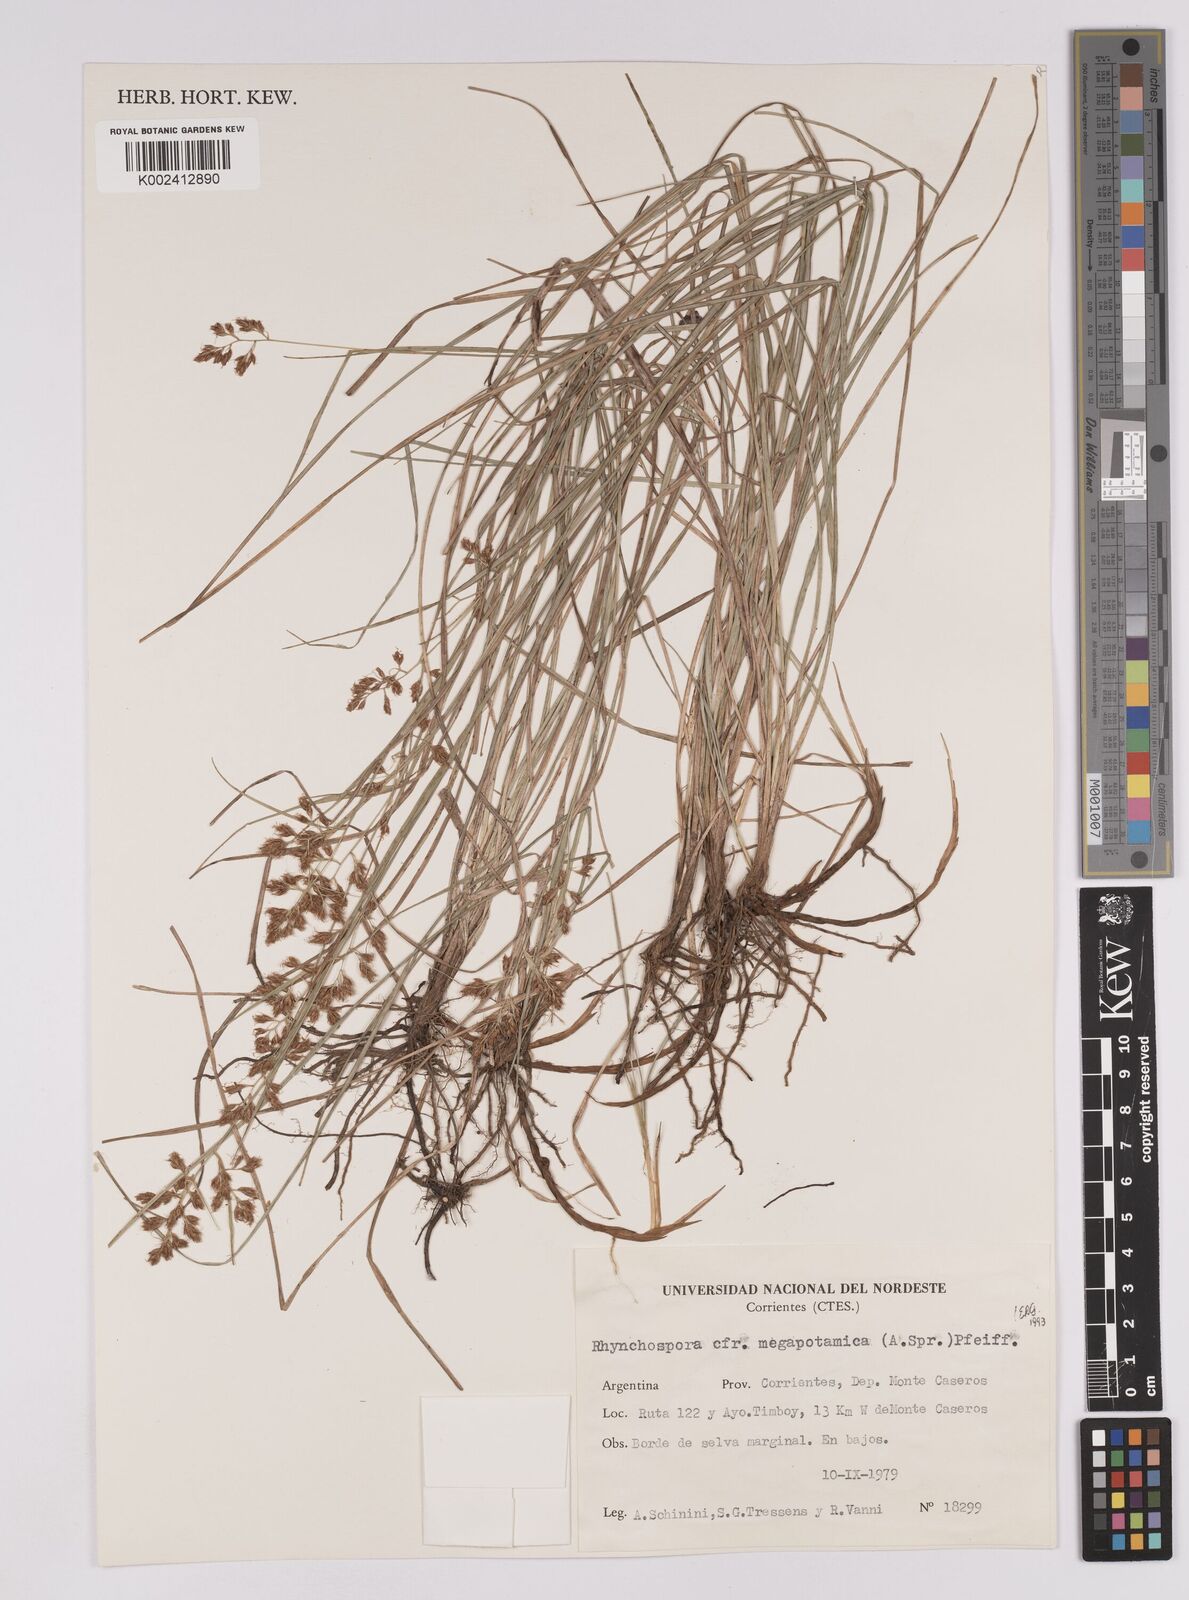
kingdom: Plantae
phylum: Tracheophyta
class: Liliopsida
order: Poales
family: Cyperaceae
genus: Rhynchospora
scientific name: Rhynchospora megapotamica
